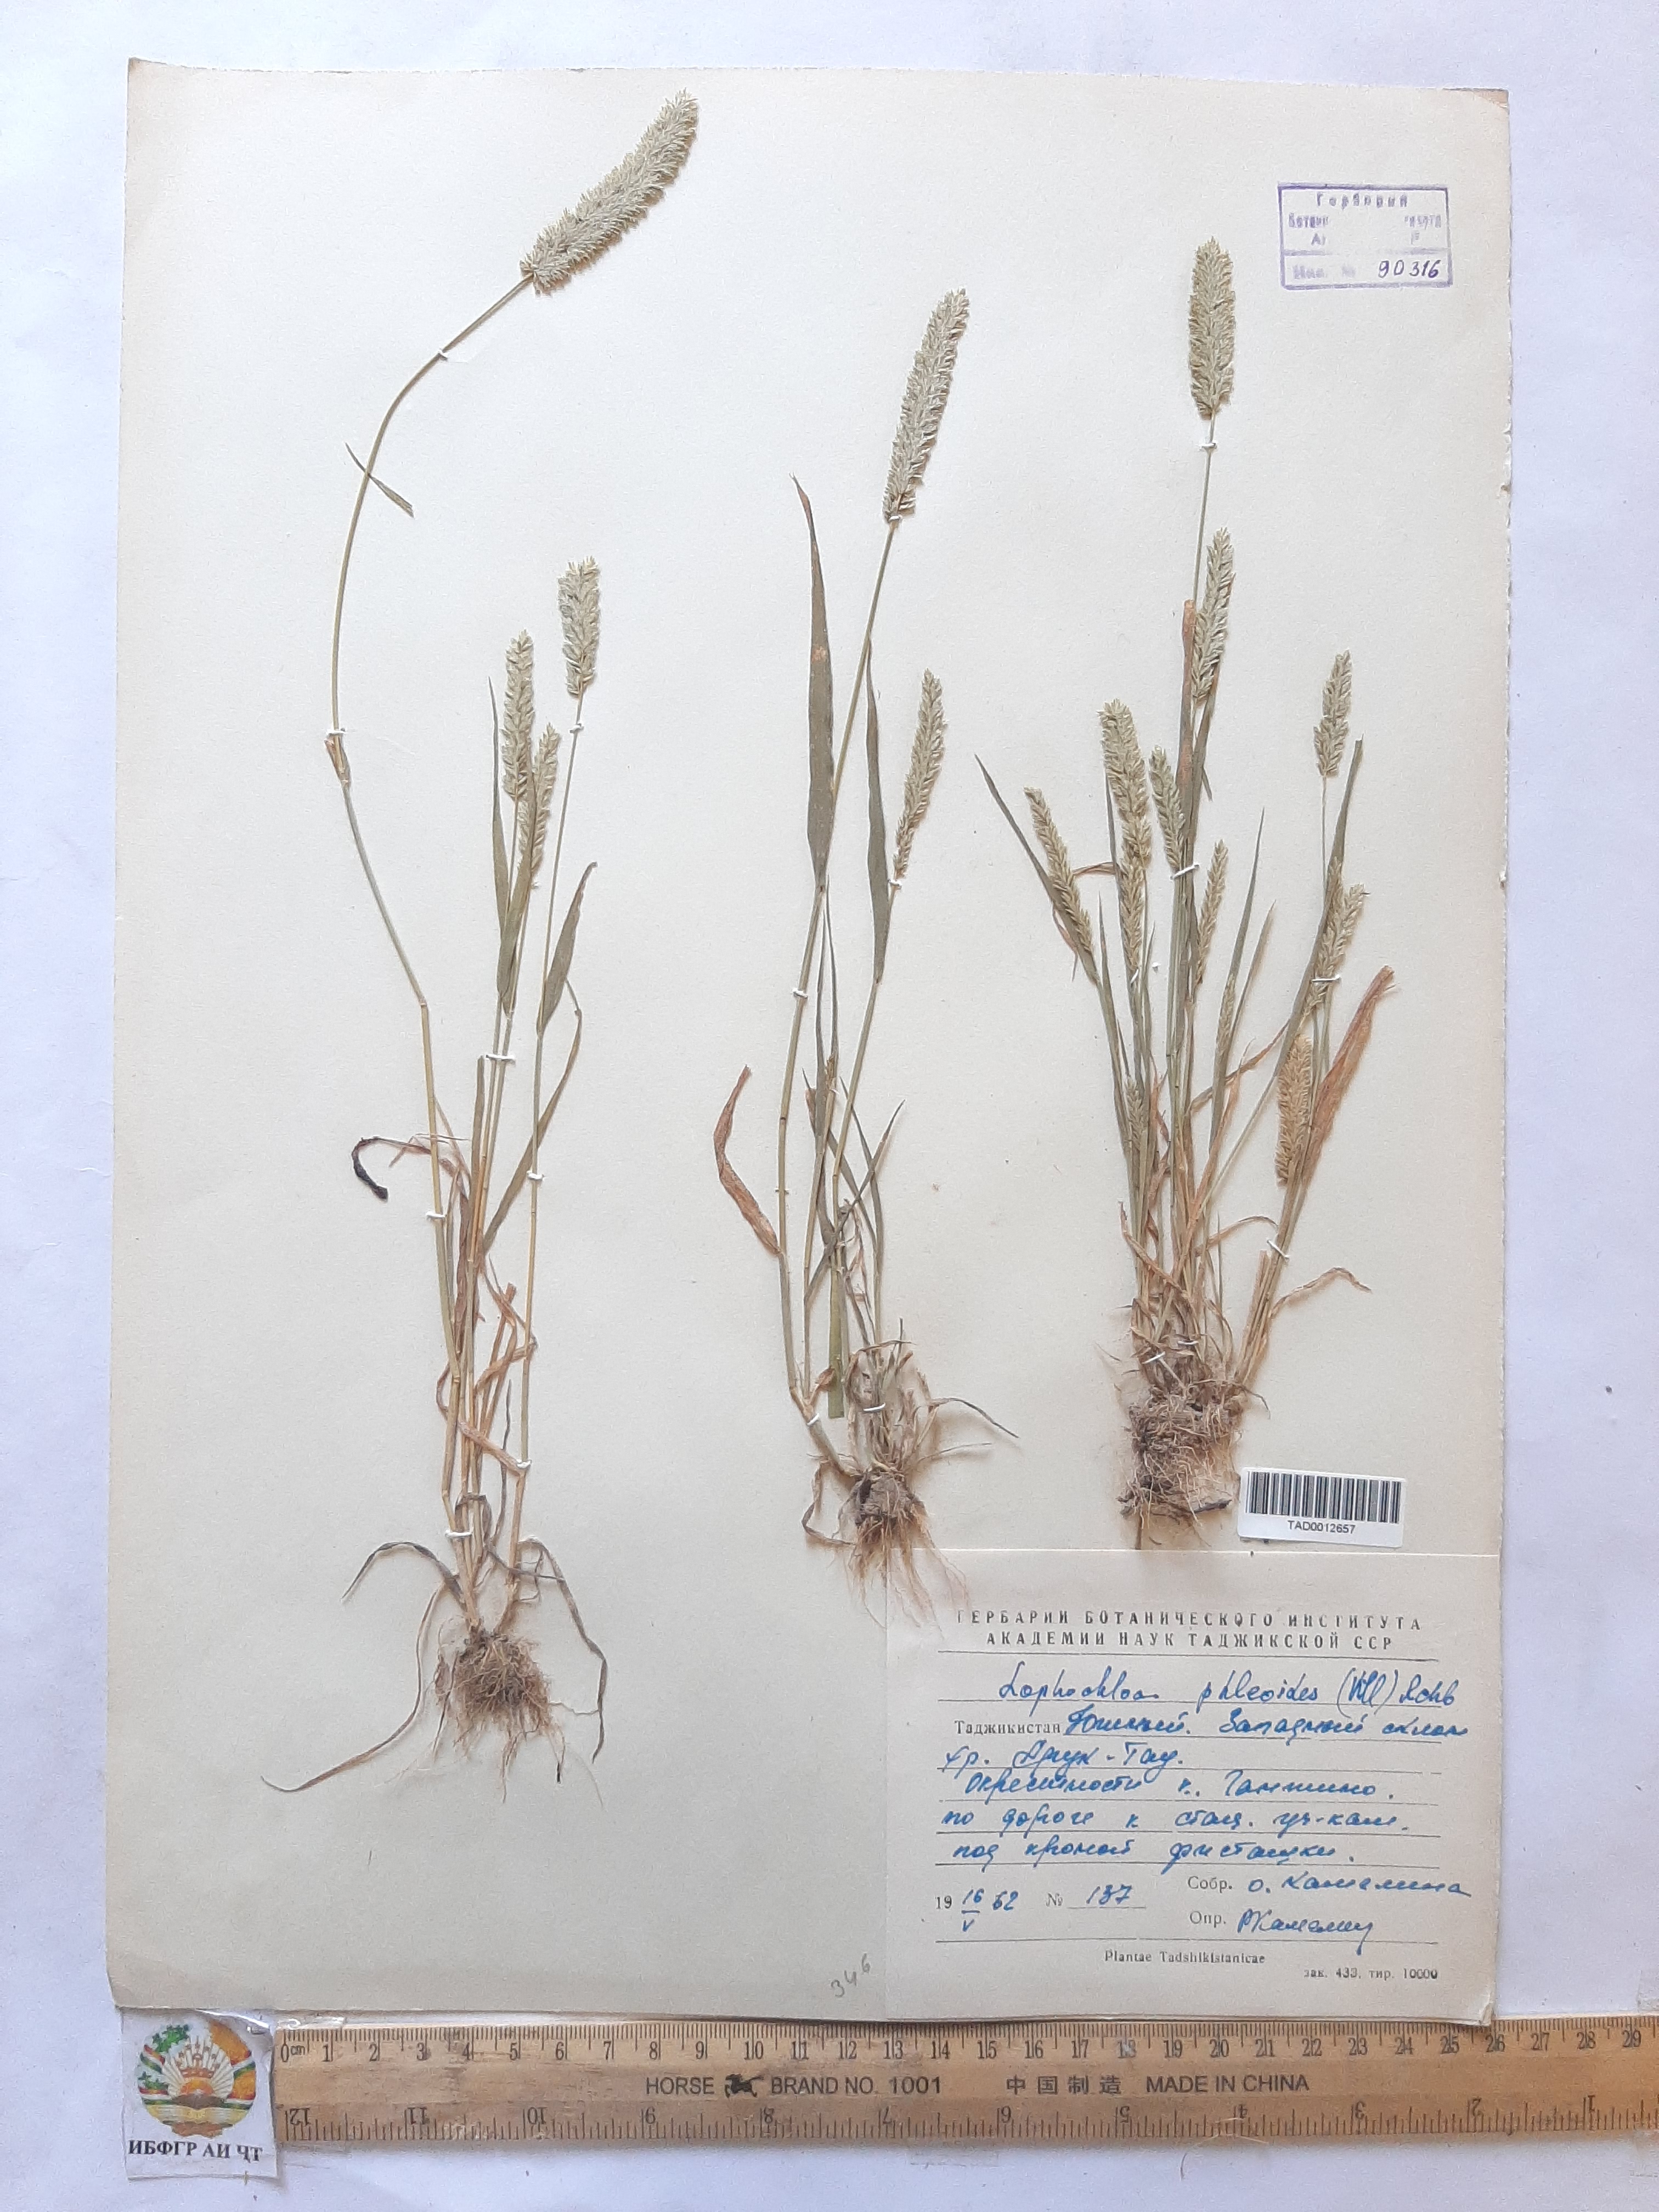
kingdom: Plantae
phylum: Tracheophyta
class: Liliopsida
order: Poales
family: Poaceae
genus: Rostraria
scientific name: Rostraria cristata
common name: Mediterranean hair-grass
